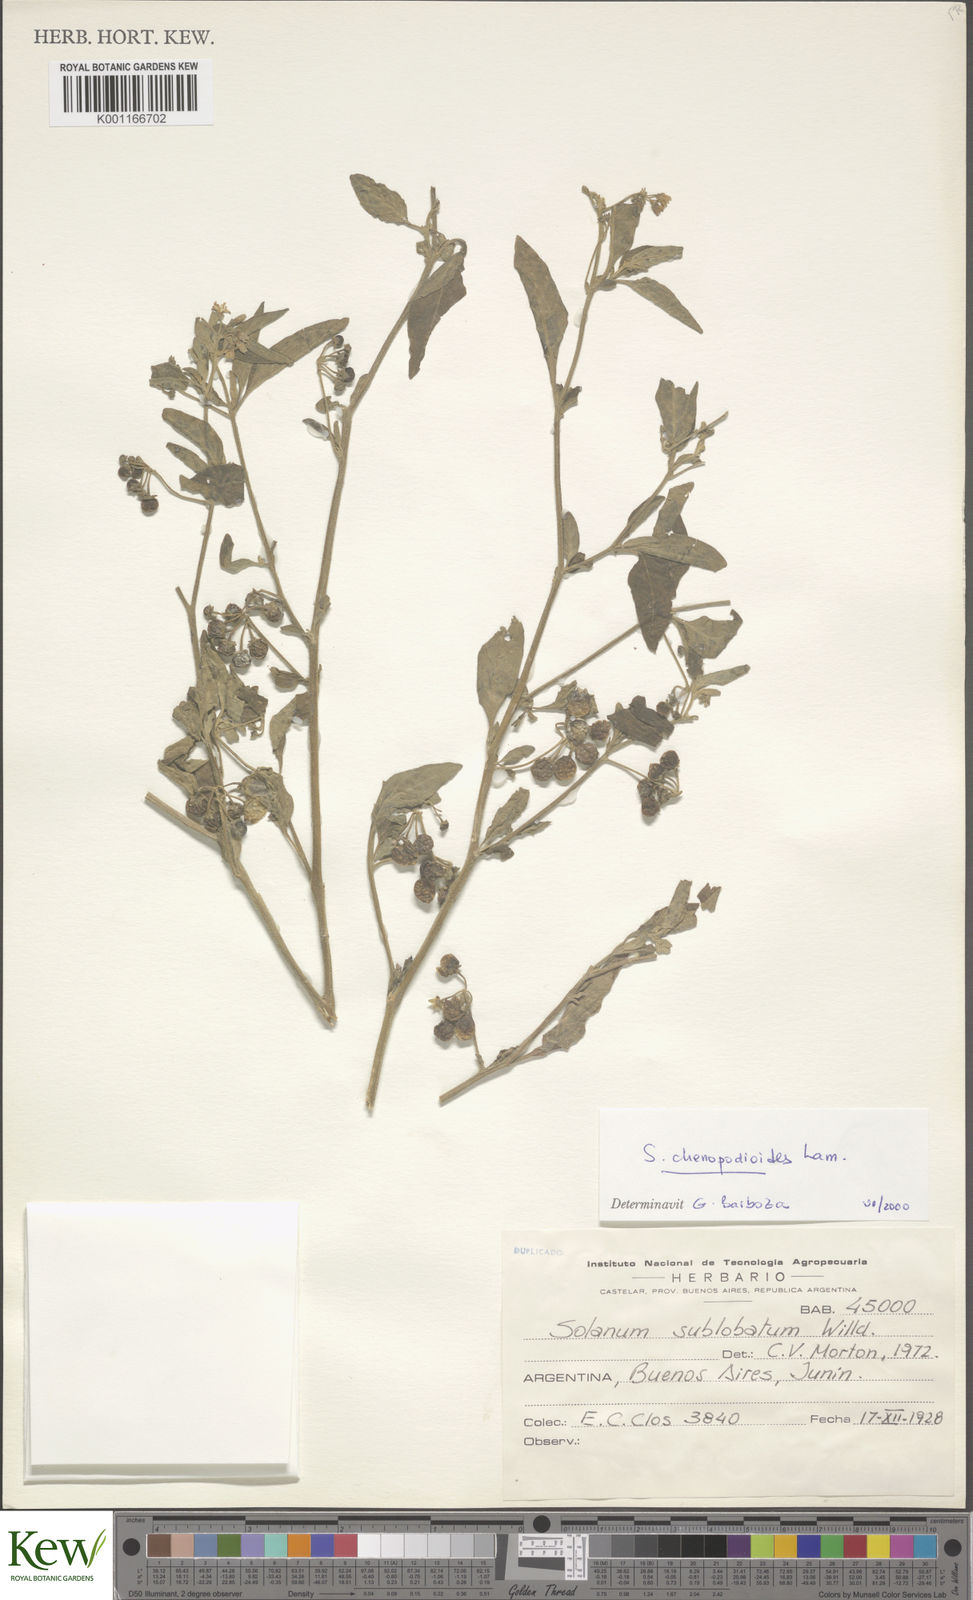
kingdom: Plantae
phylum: Tracheophyta
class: Magnoliopsida
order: Solanales
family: Solanaceae
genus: Solanum
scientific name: Solanum chenopodioides
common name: Tall nightshade
